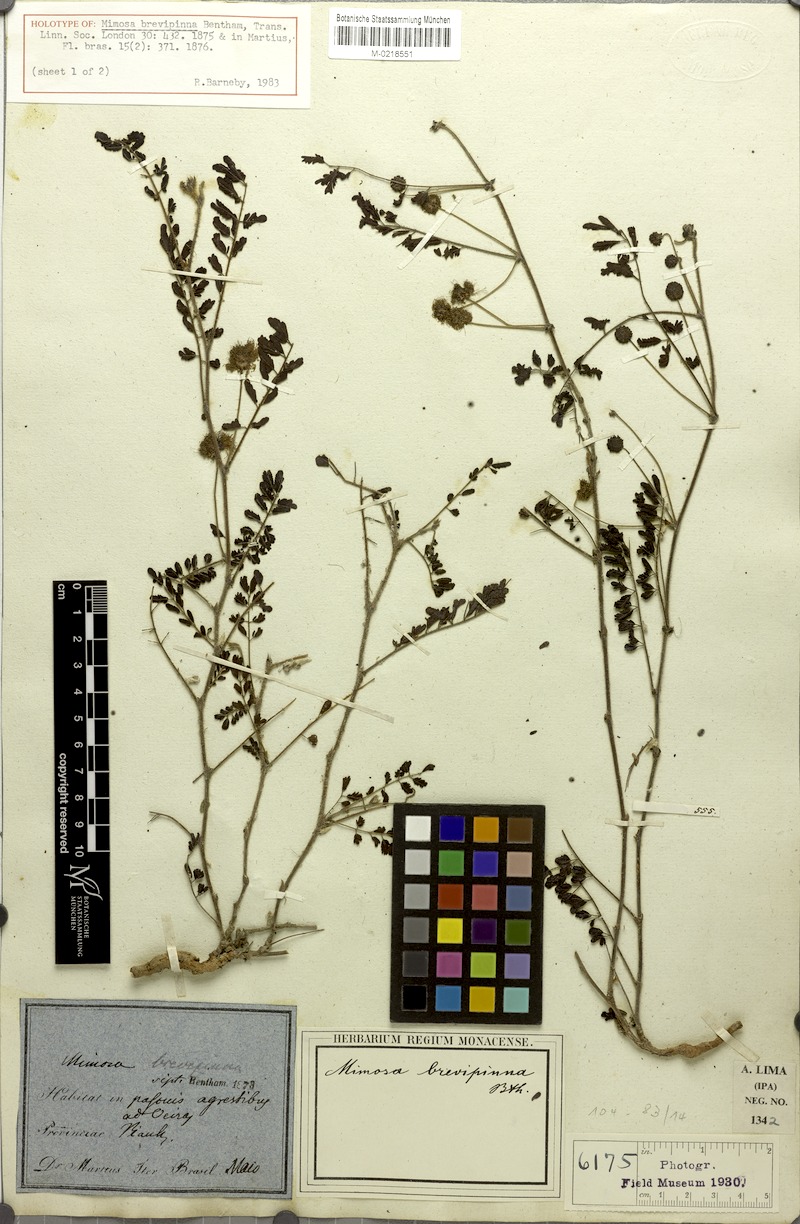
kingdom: Plantae
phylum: Tracheophyta
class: Magnoliopsida
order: Fabales
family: Fabaceae
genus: Mimosa
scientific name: Mimosa brevipinna
